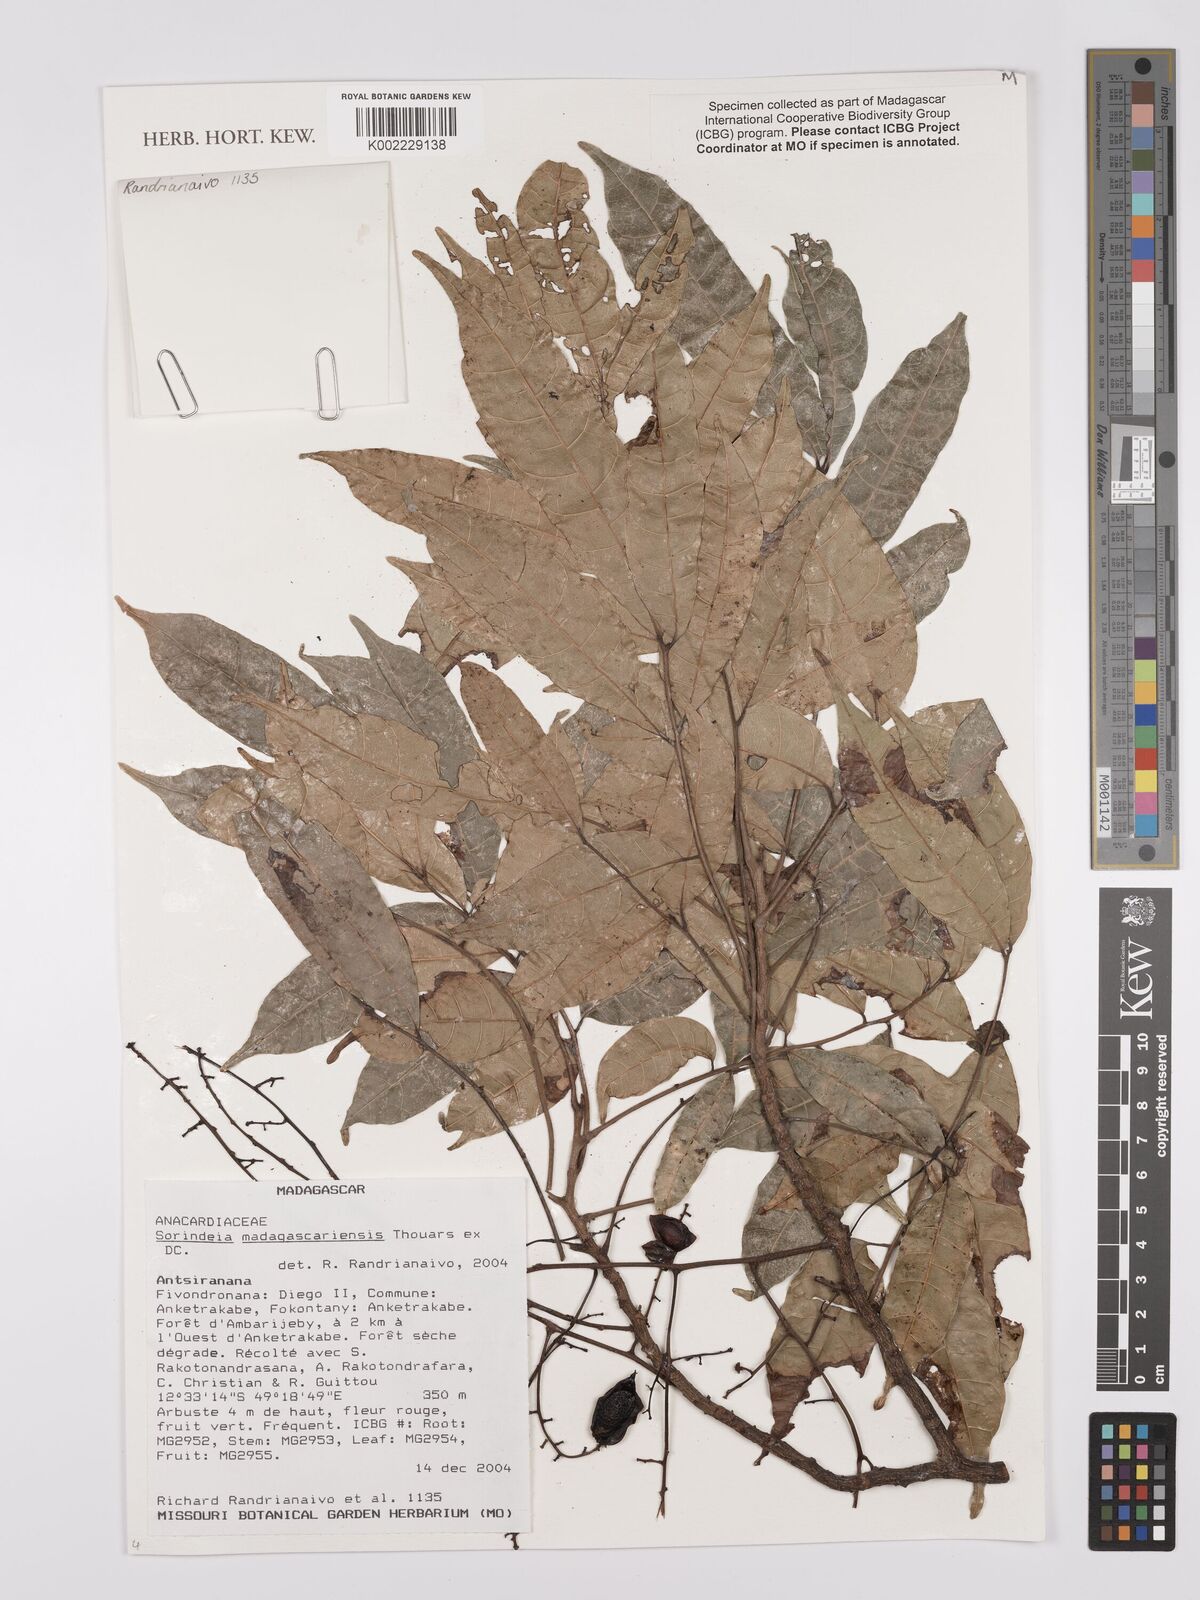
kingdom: Plantae
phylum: Tracheophyta
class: Magnoliopsida
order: Sapindales
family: Anacardiaceae
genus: Sorindeia
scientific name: Sorindeia madagascariensis
